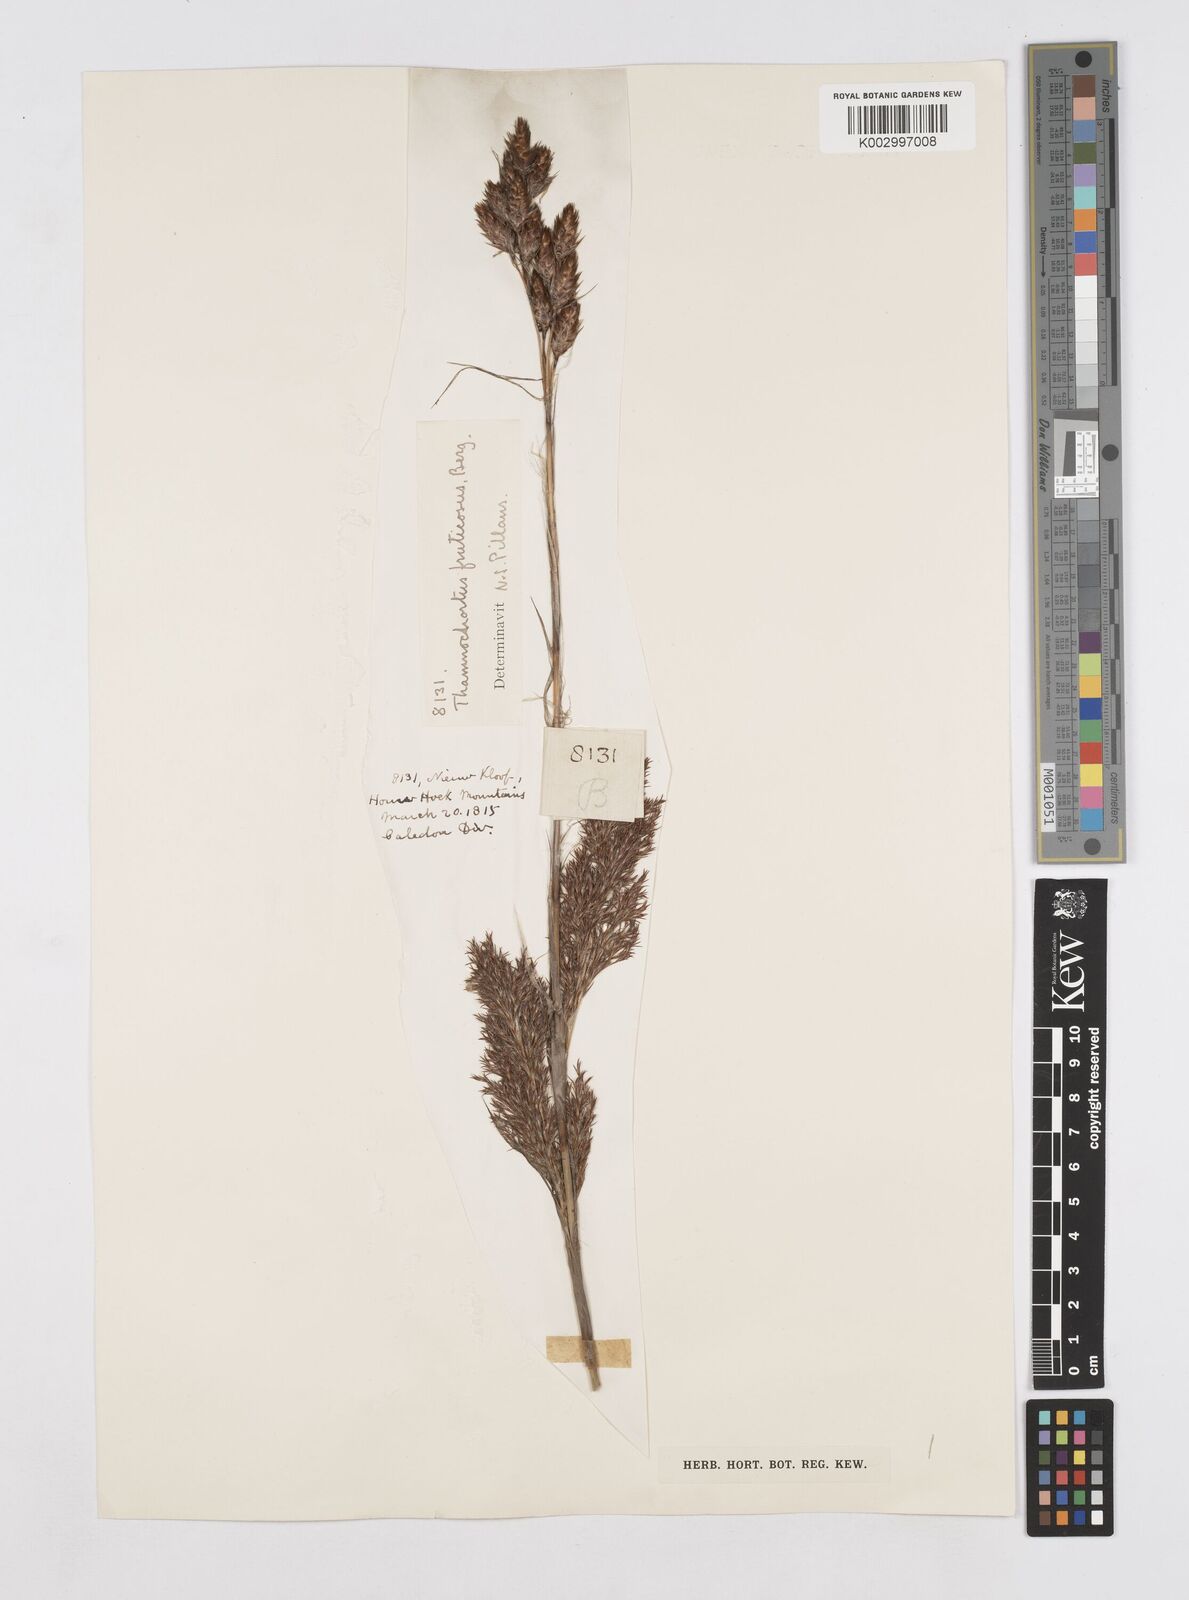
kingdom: Plantae
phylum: Tracheophyta
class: Liliopsida
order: Poales
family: Restionaceae
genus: Thamnochortus
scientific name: Thamnochortus fruticosus
